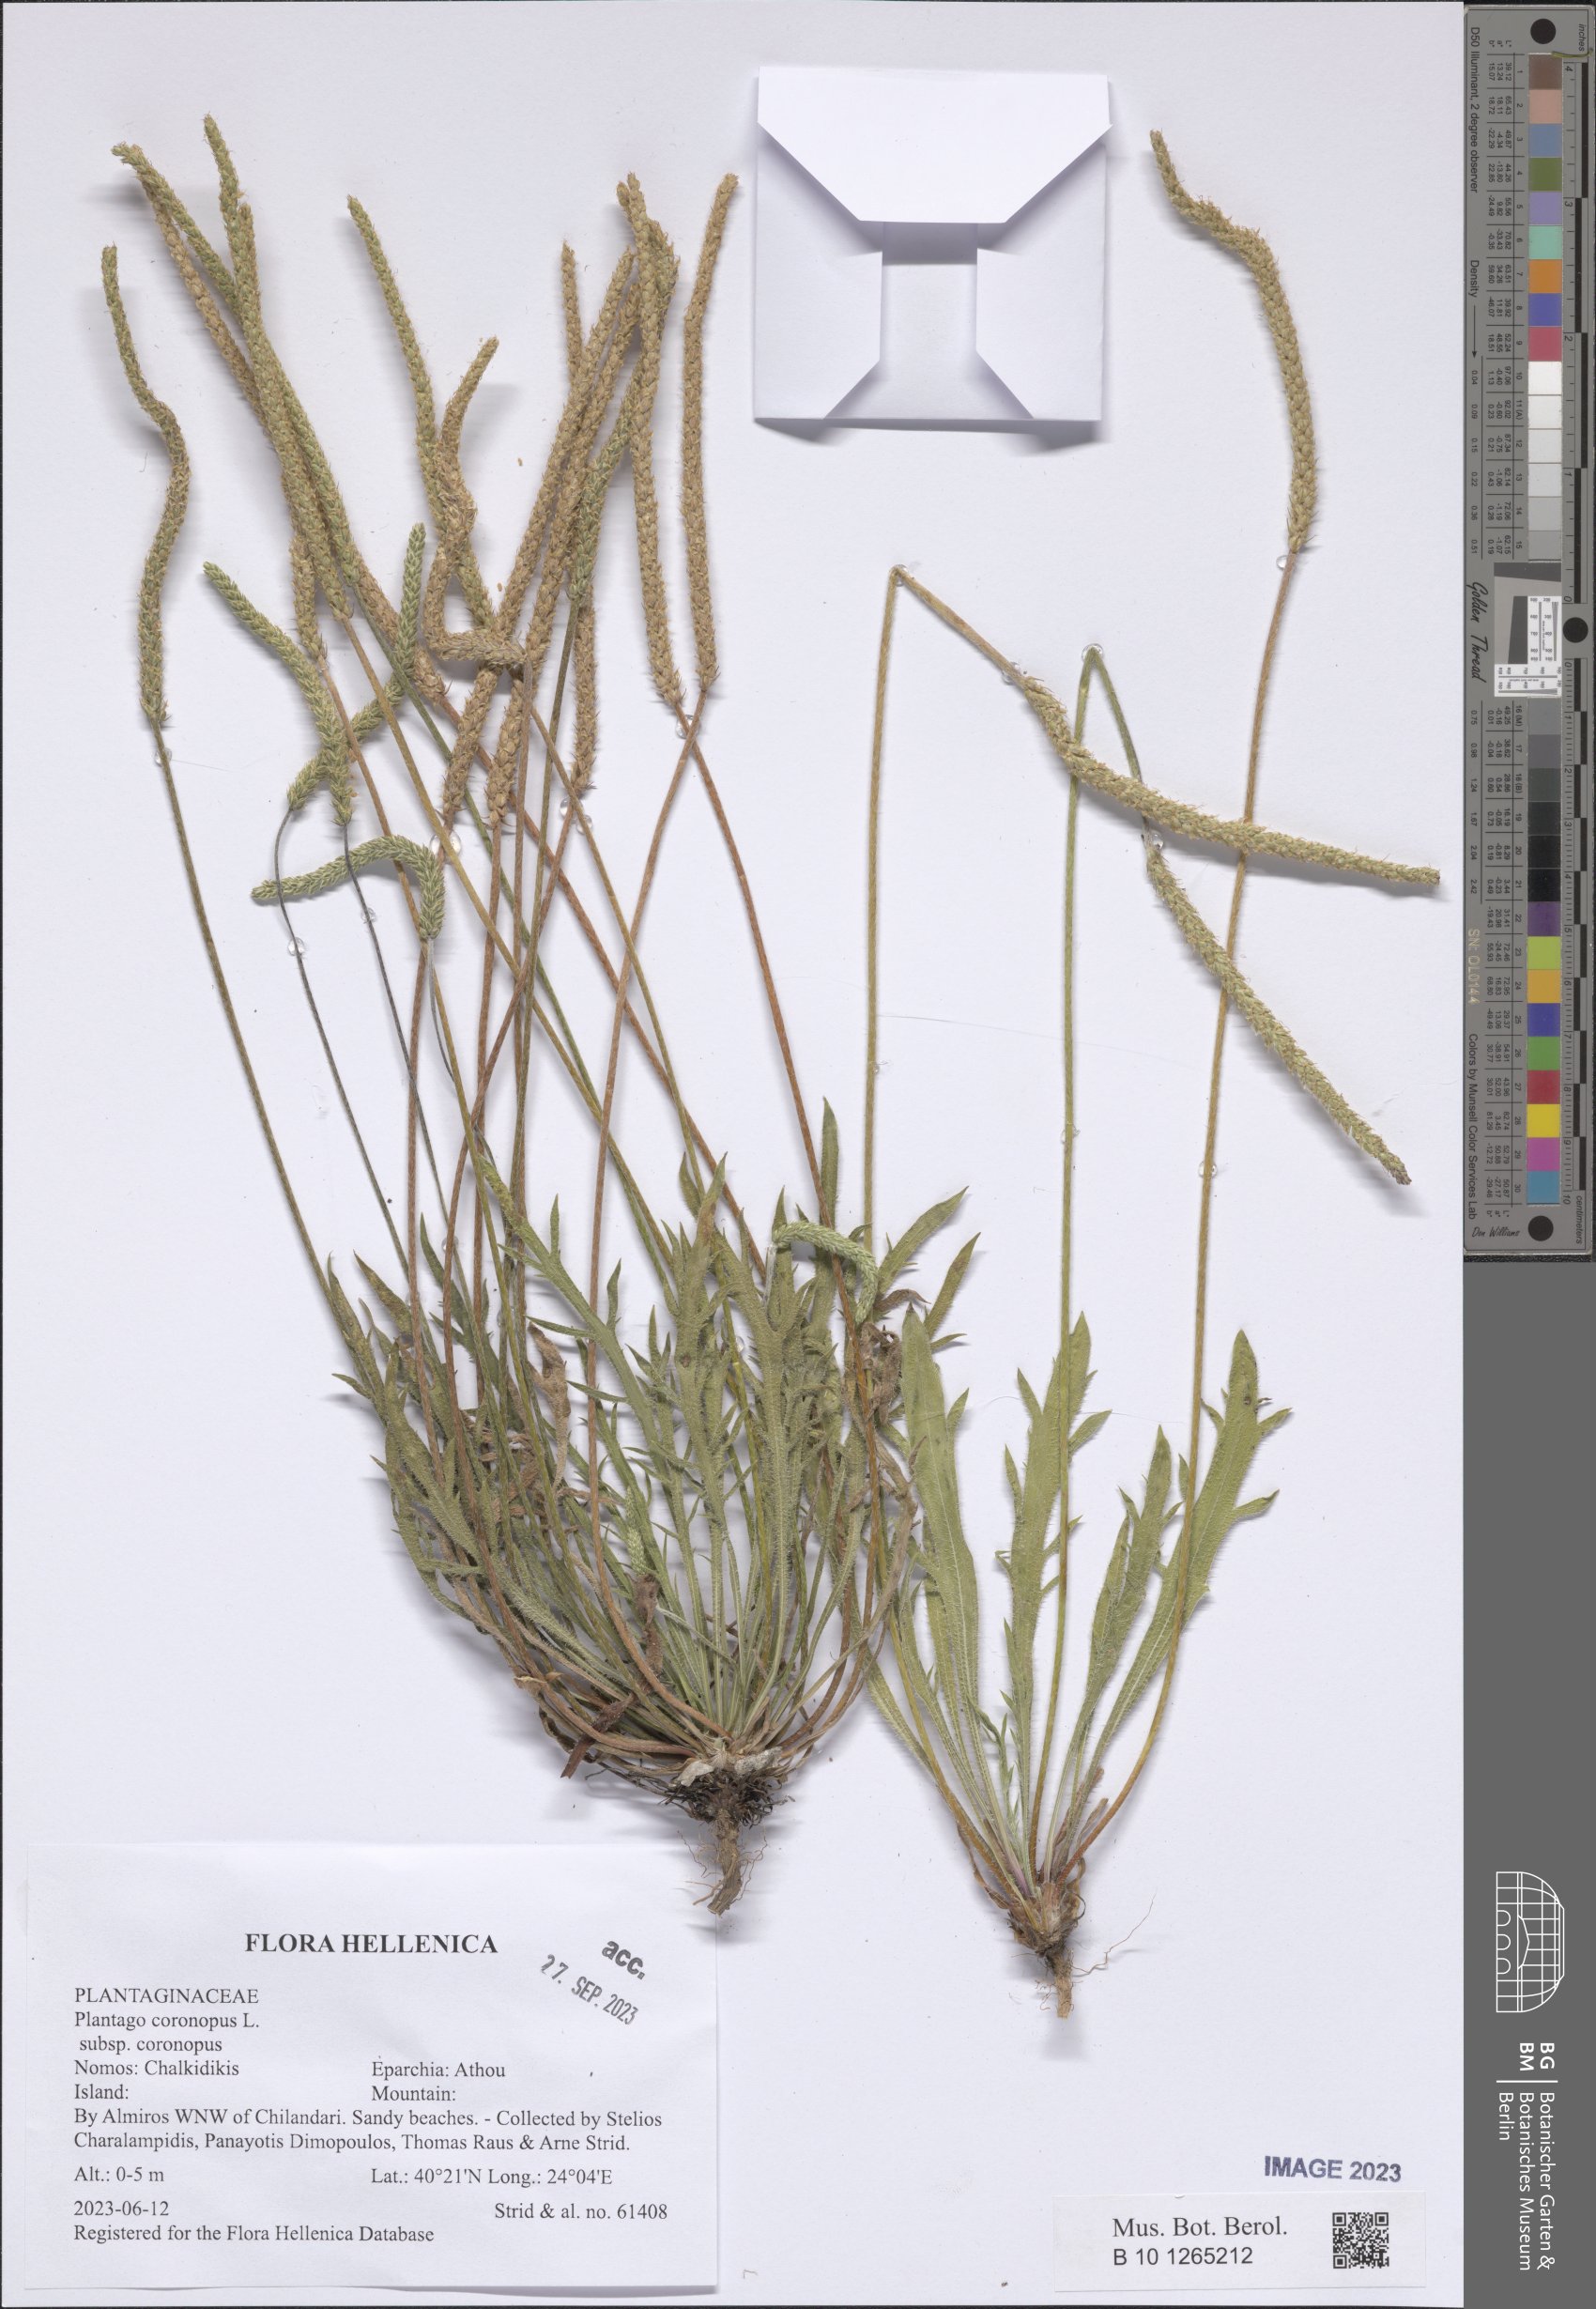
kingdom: Plantae
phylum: Tracheophyta
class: Magnoliopsida
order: Lamiales
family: Plantaginaceae
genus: Plantago
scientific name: Plantago coronopus
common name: Buck's-horn plantain
